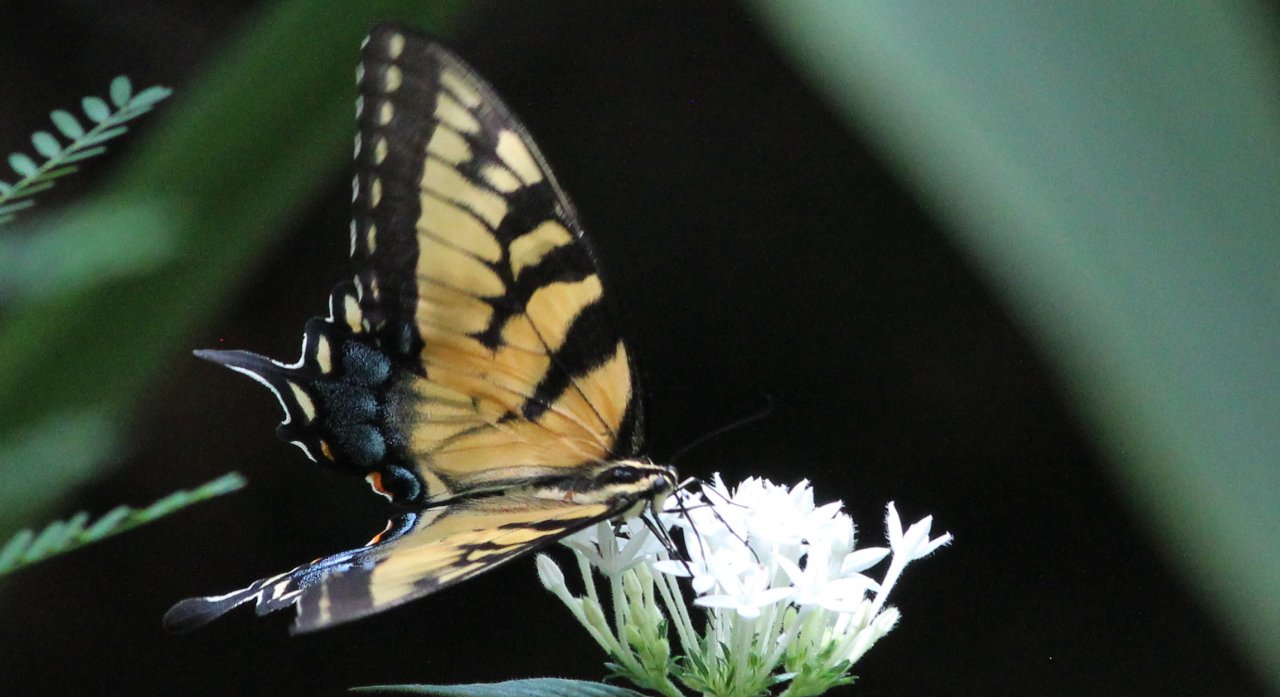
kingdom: Animalia
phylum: Arthropoda
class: Insecta
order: Lepidoptera
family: Papilionidae
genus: Pterourus
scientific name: Pterourus glaucus
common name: Eastern Tiger Swallowtail
